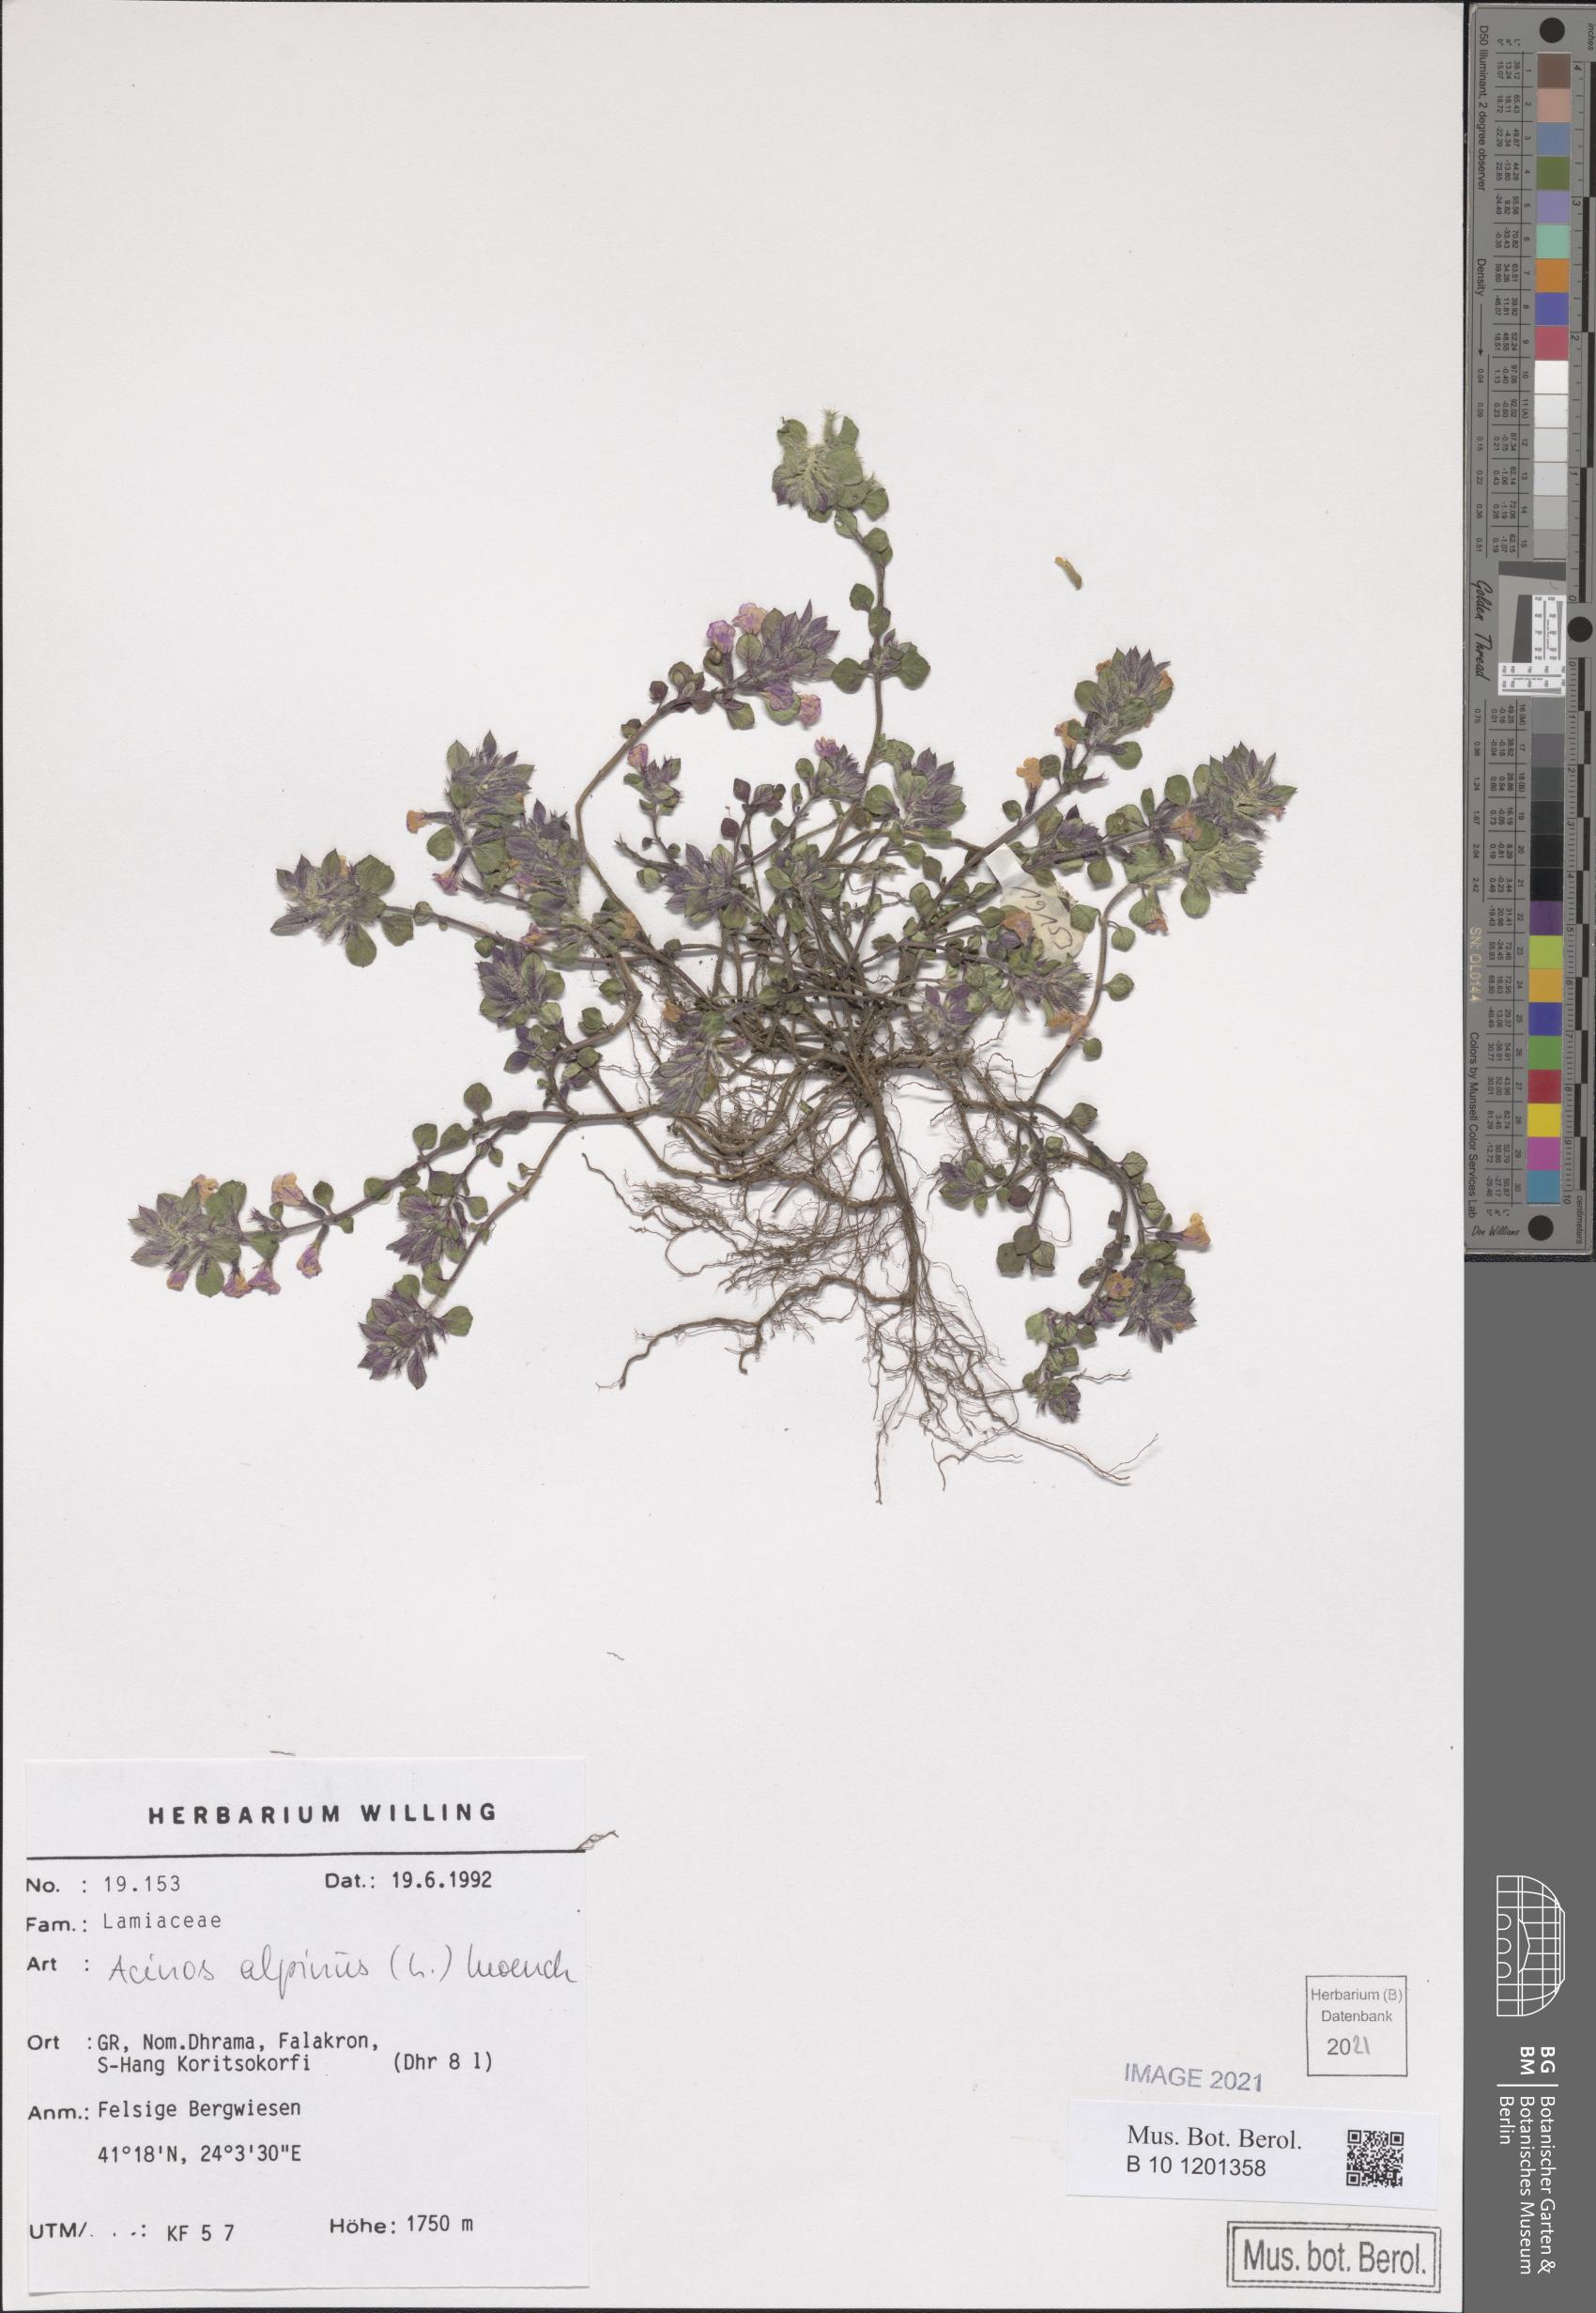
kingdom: Plantae
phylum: Tracheophyta
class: Magnoliopsida
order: Lamiales
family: Lamiaceae
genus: Clinopodium
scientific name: Clinopodium alpinum
